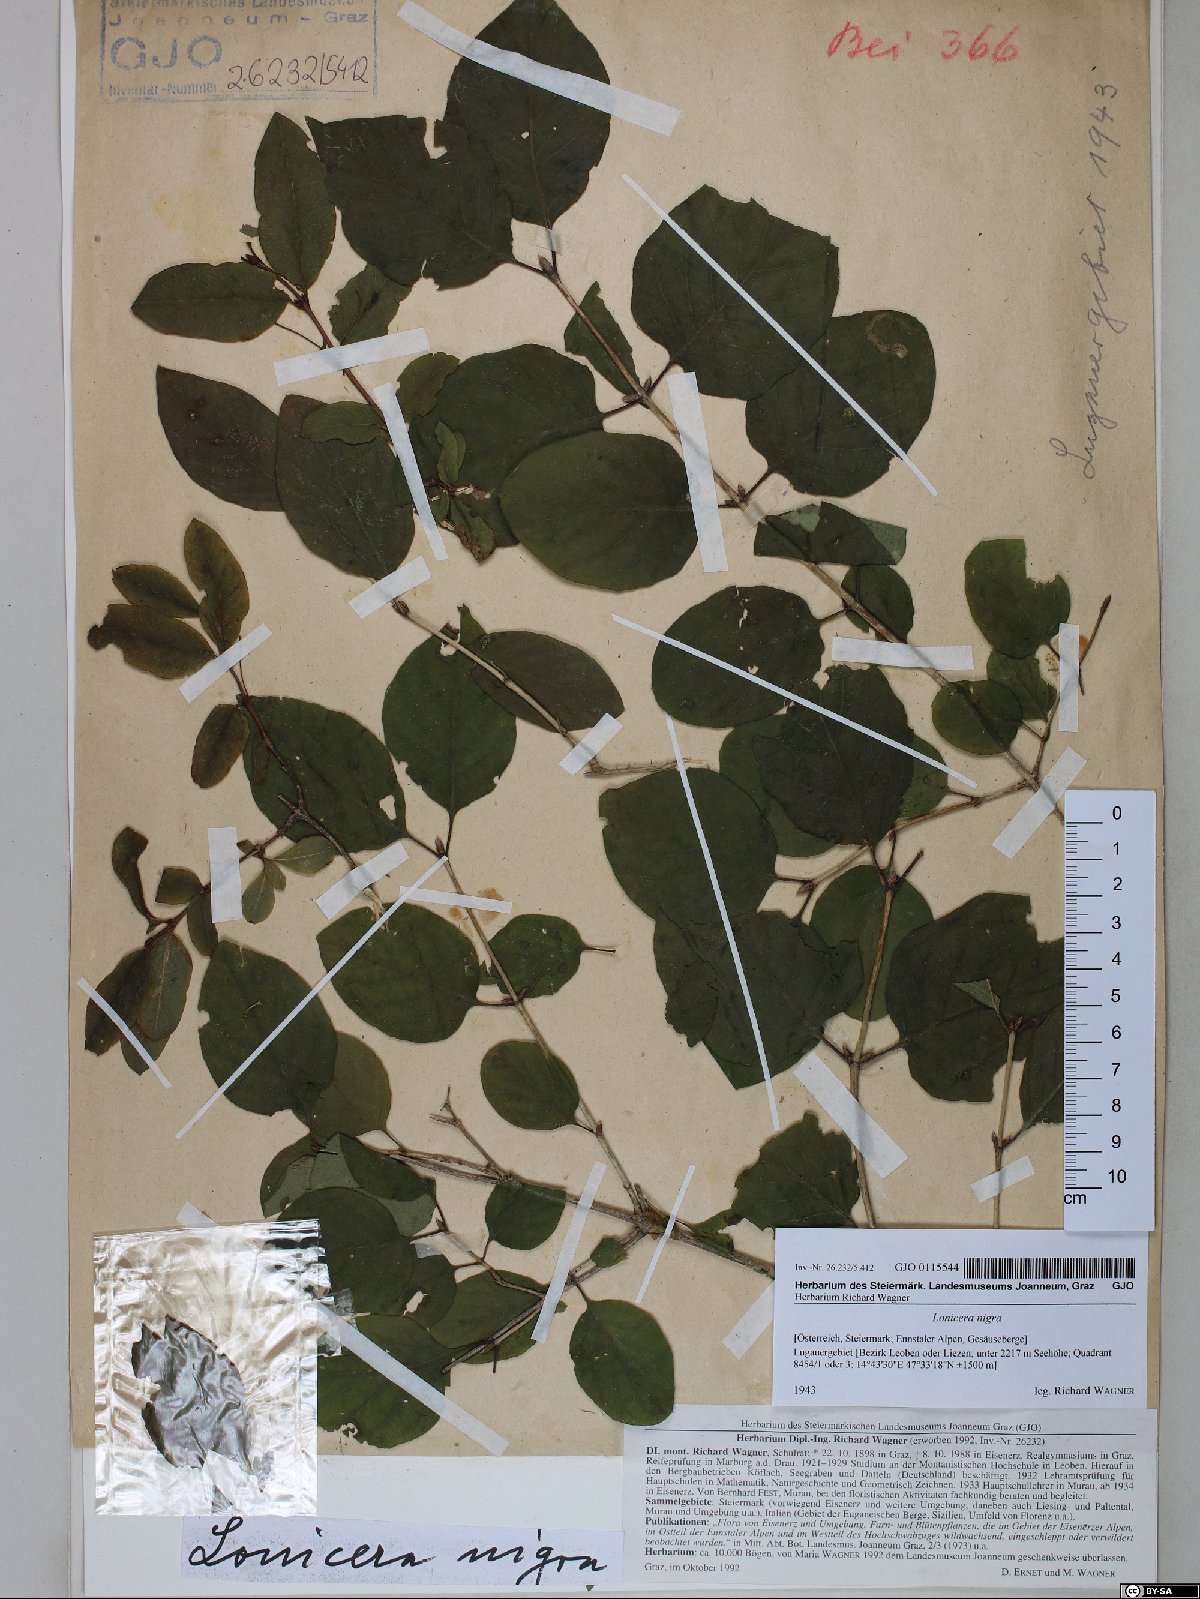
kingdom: Plantae
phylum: Tracheophyta
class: Magnoliopsida
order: Dipsacales
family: Caprifoliaceae
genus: Lonicera
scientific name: Lonicera nigra
